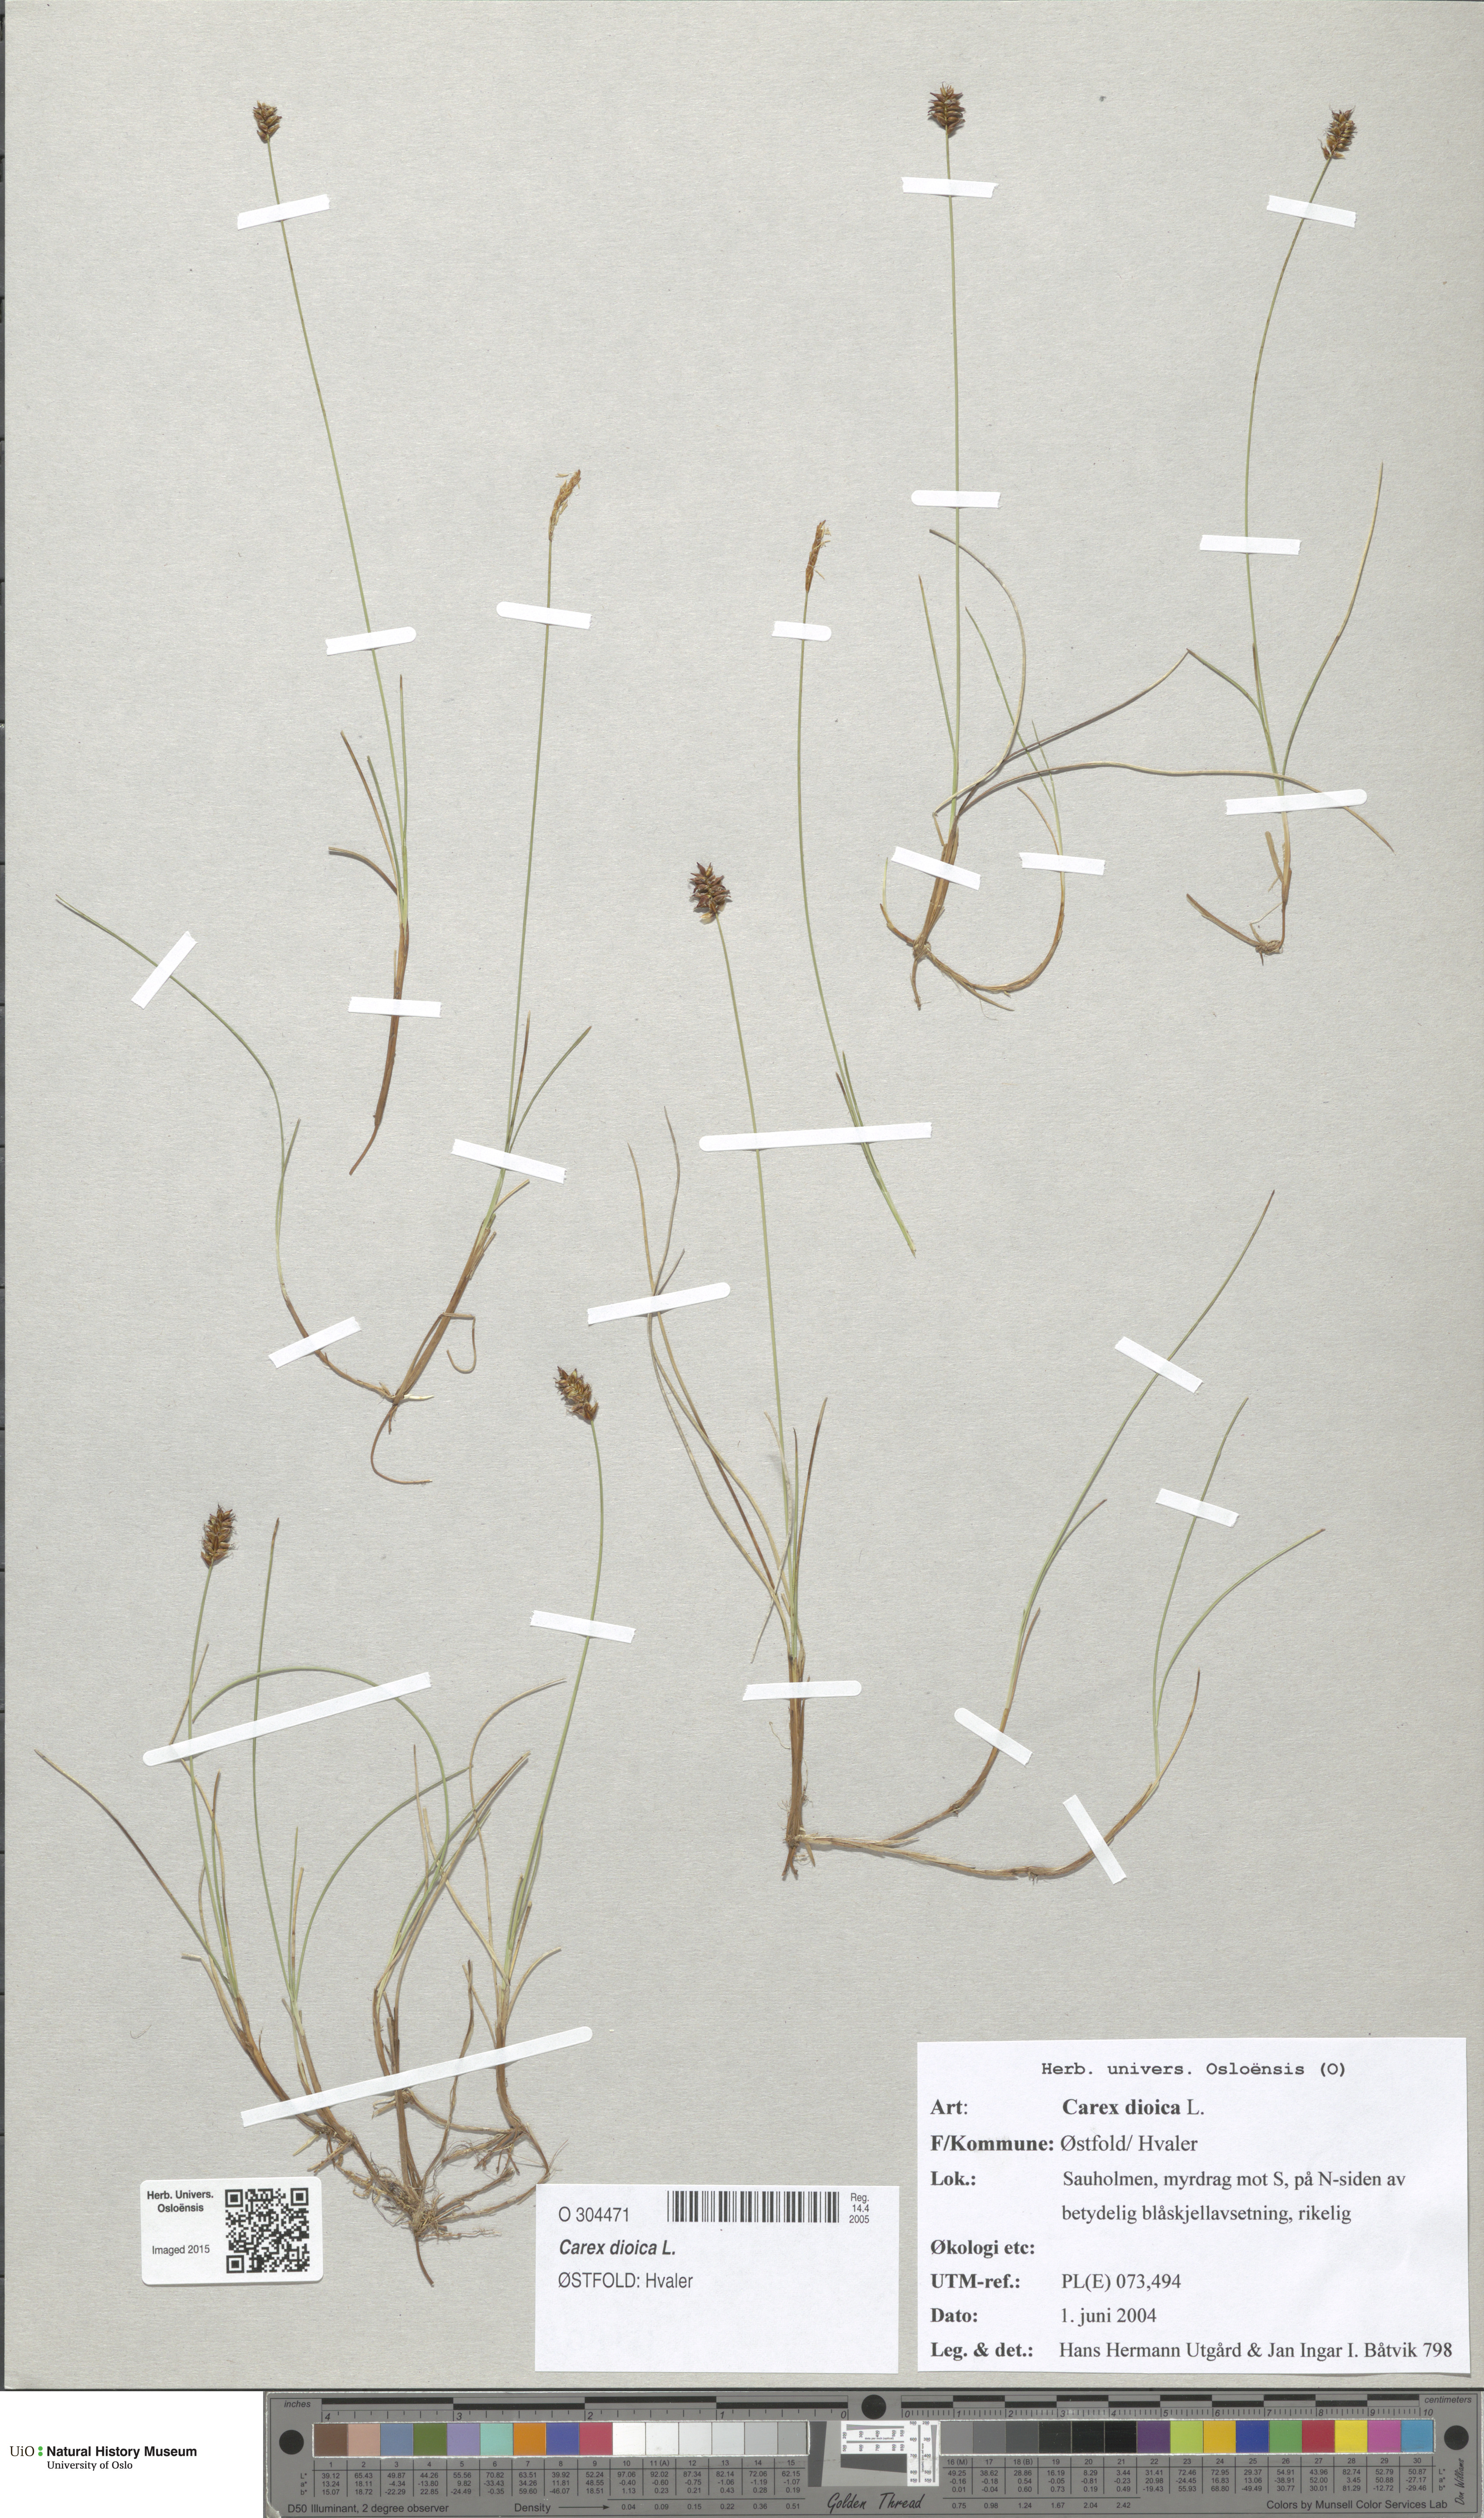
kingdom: Plantae
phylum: Tracheophyta
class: Liliopsida
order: Poales
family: Cyperaceae
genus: Carex
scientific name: Carex dioica
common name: Dioecious sedge
